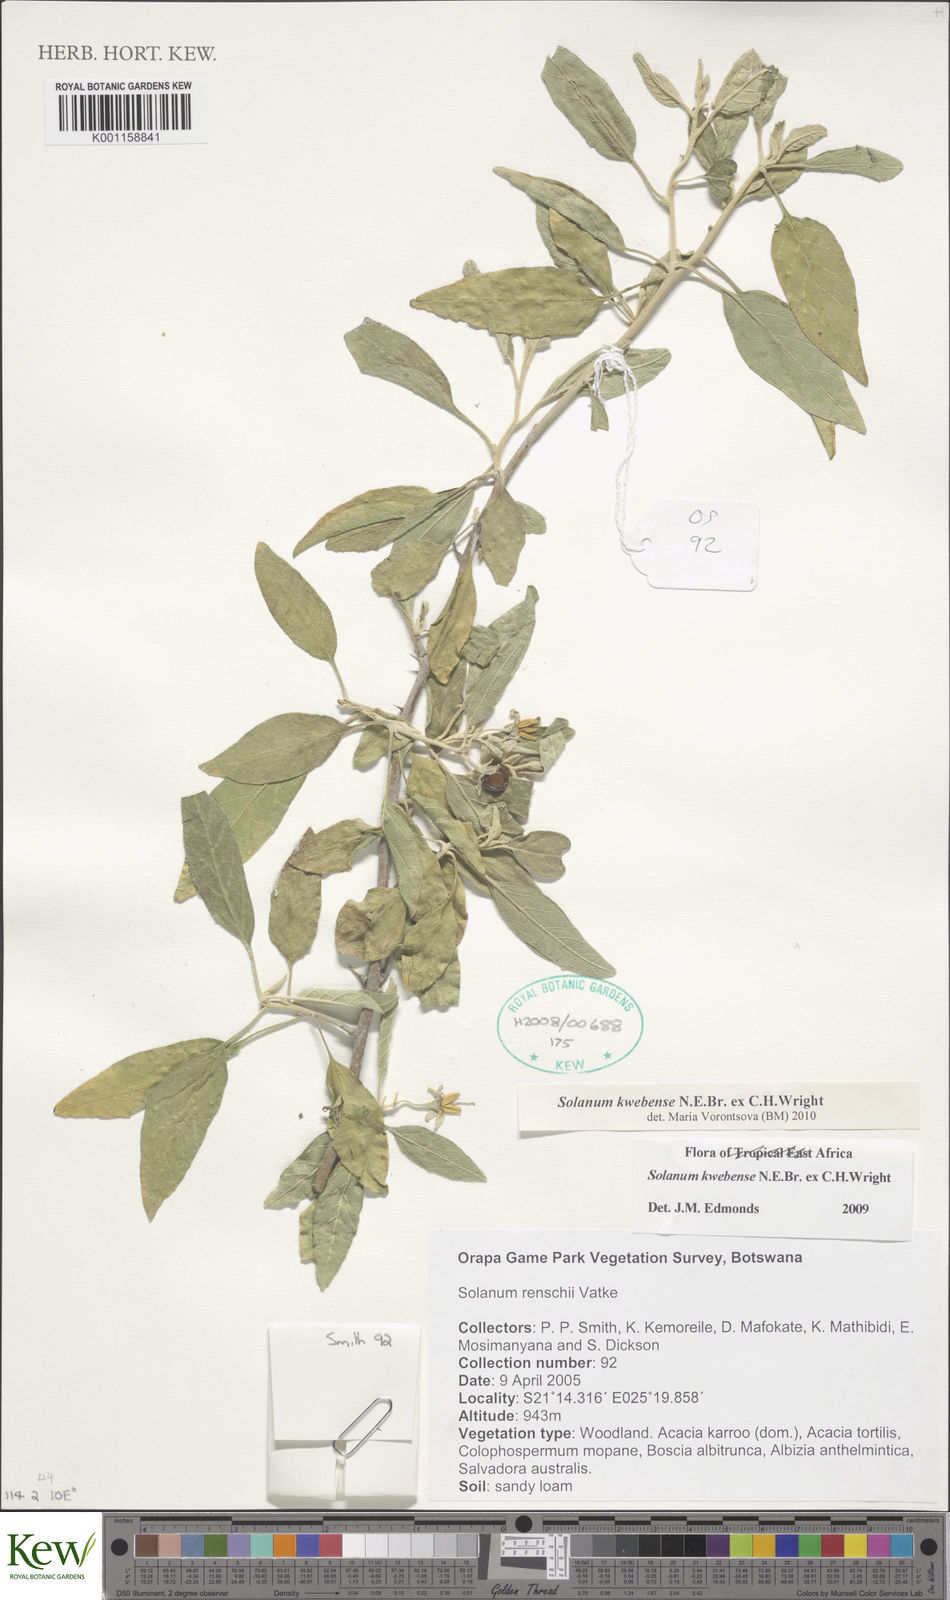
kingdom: Plantae
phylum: Tracheophyta
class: Magnoliopsida
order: Solanales
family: Solanaceae
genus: Solanum
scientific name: Solanum tettense
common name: Mozambique bitter apple
